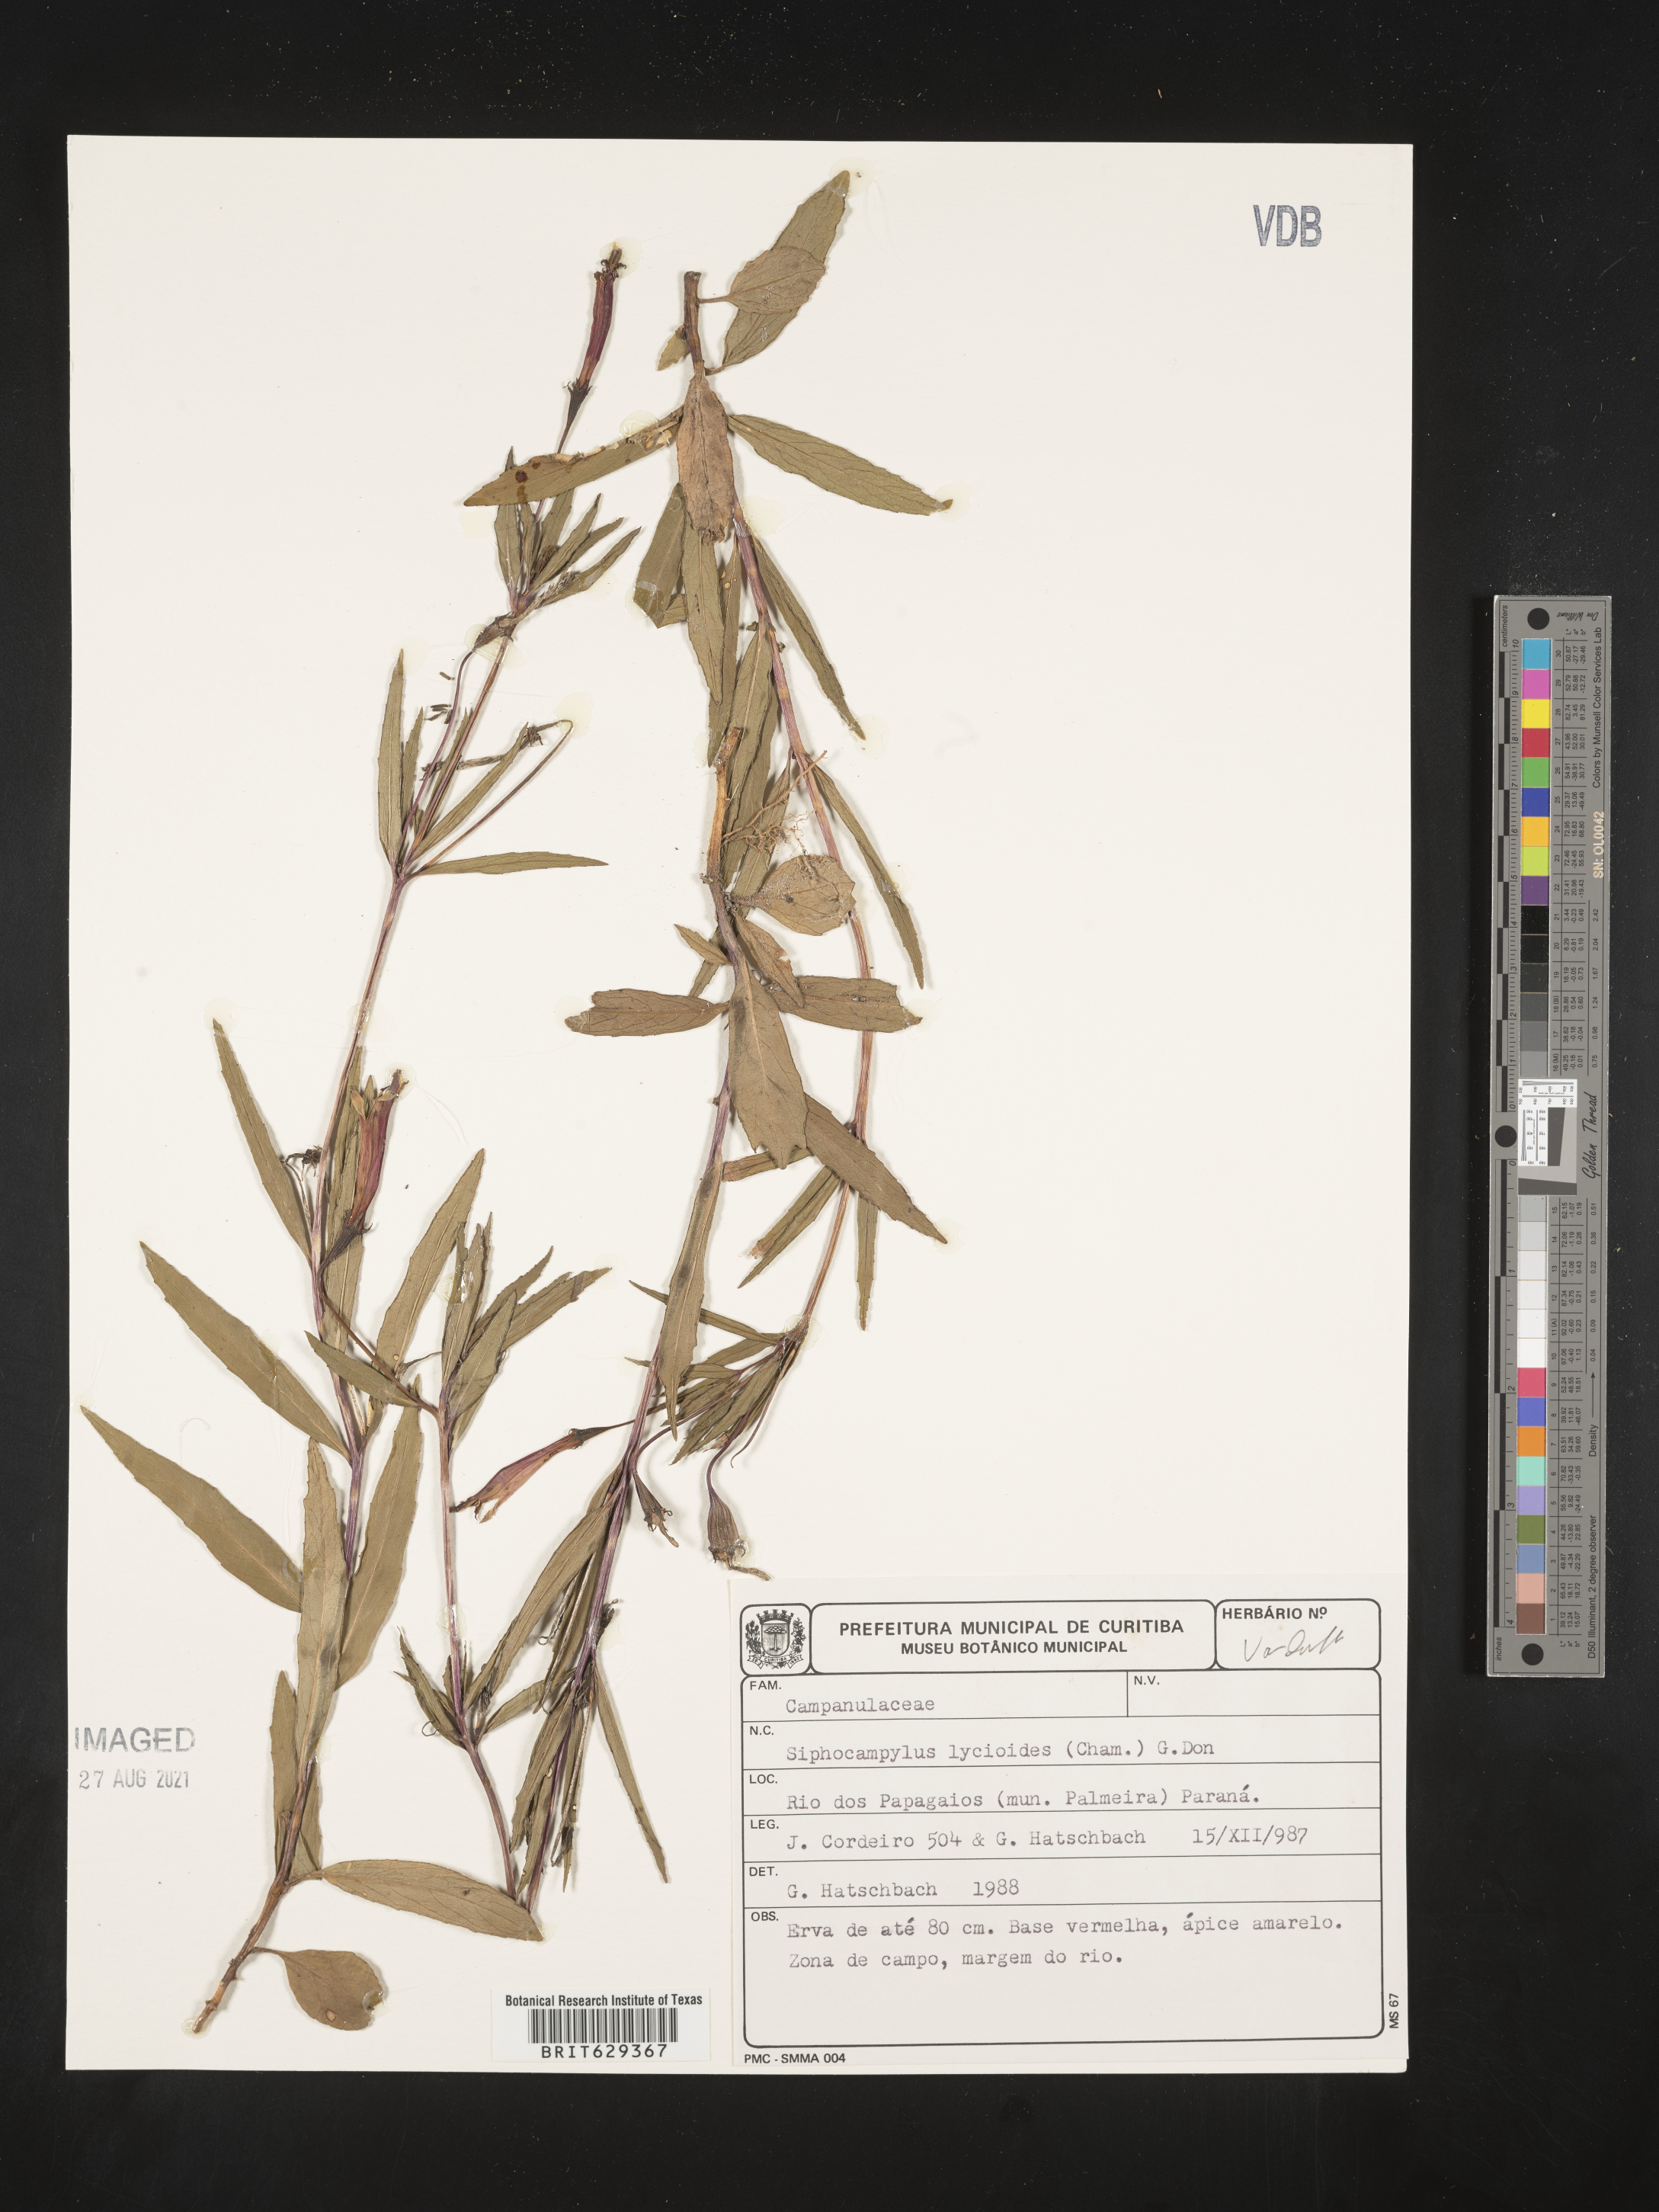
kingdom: Plantae
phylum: Tracheophyta
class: Magnoliopsida
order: Asterales
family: Campanulaceae
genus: Siphocampylus
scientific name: Siphocampylus lycioides
